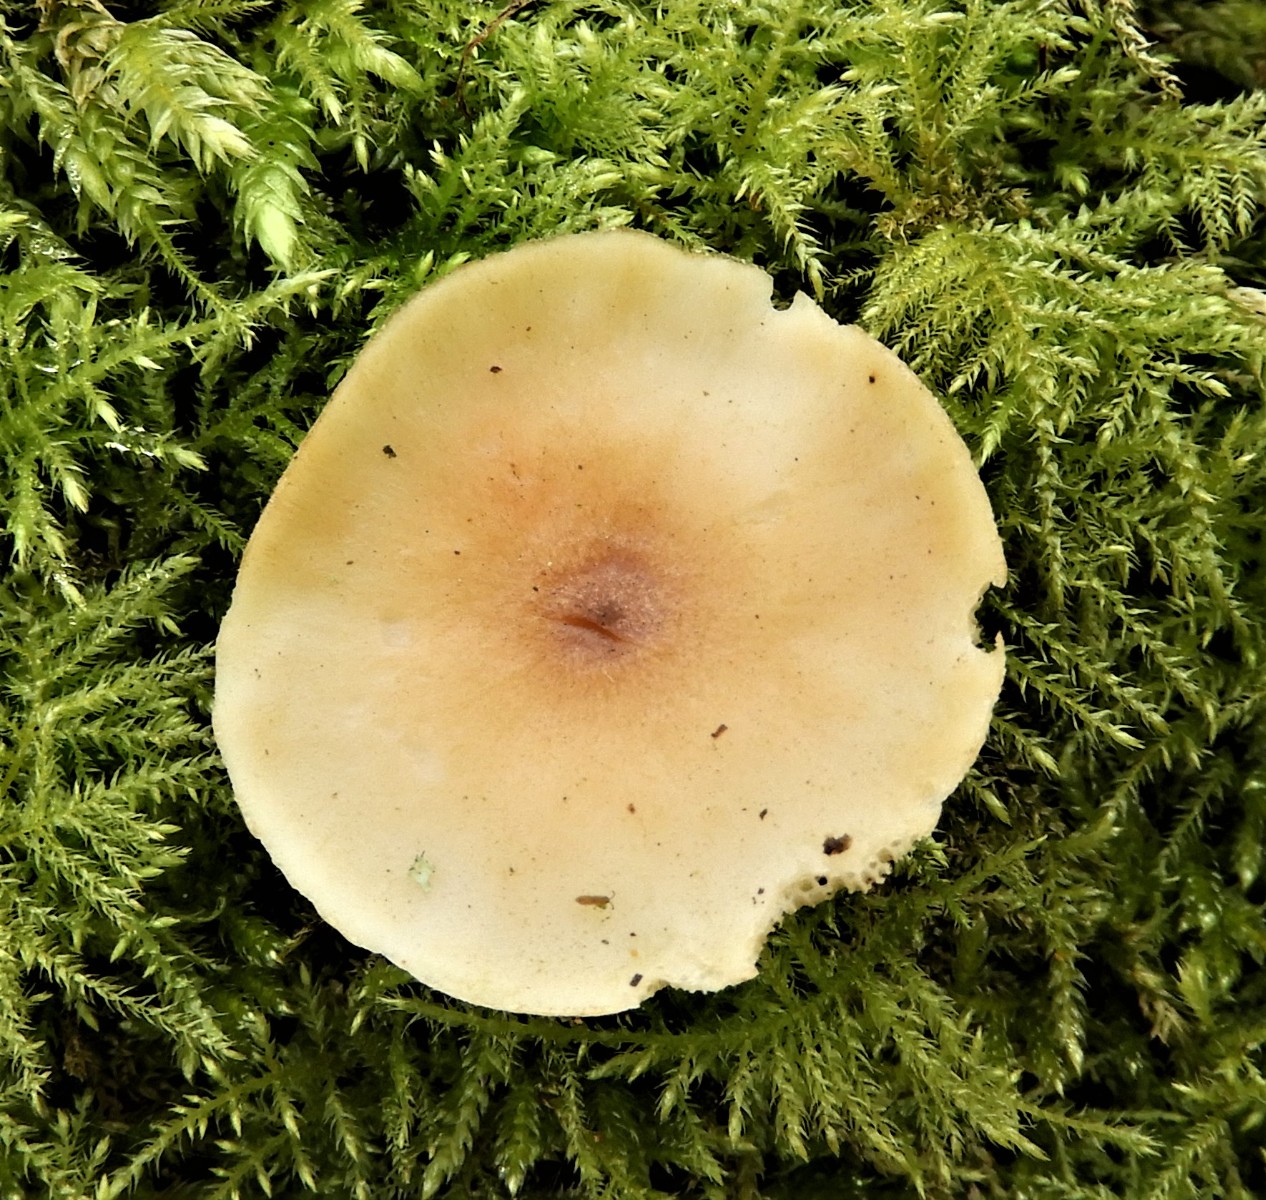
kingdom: Fungi
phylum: Basidiomycota
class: Agaricomycetes
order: Polyporales
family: Polyporaceae
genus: Lentinus
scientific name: Lentinus substrictus
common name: forårs-stilkporesvamp
